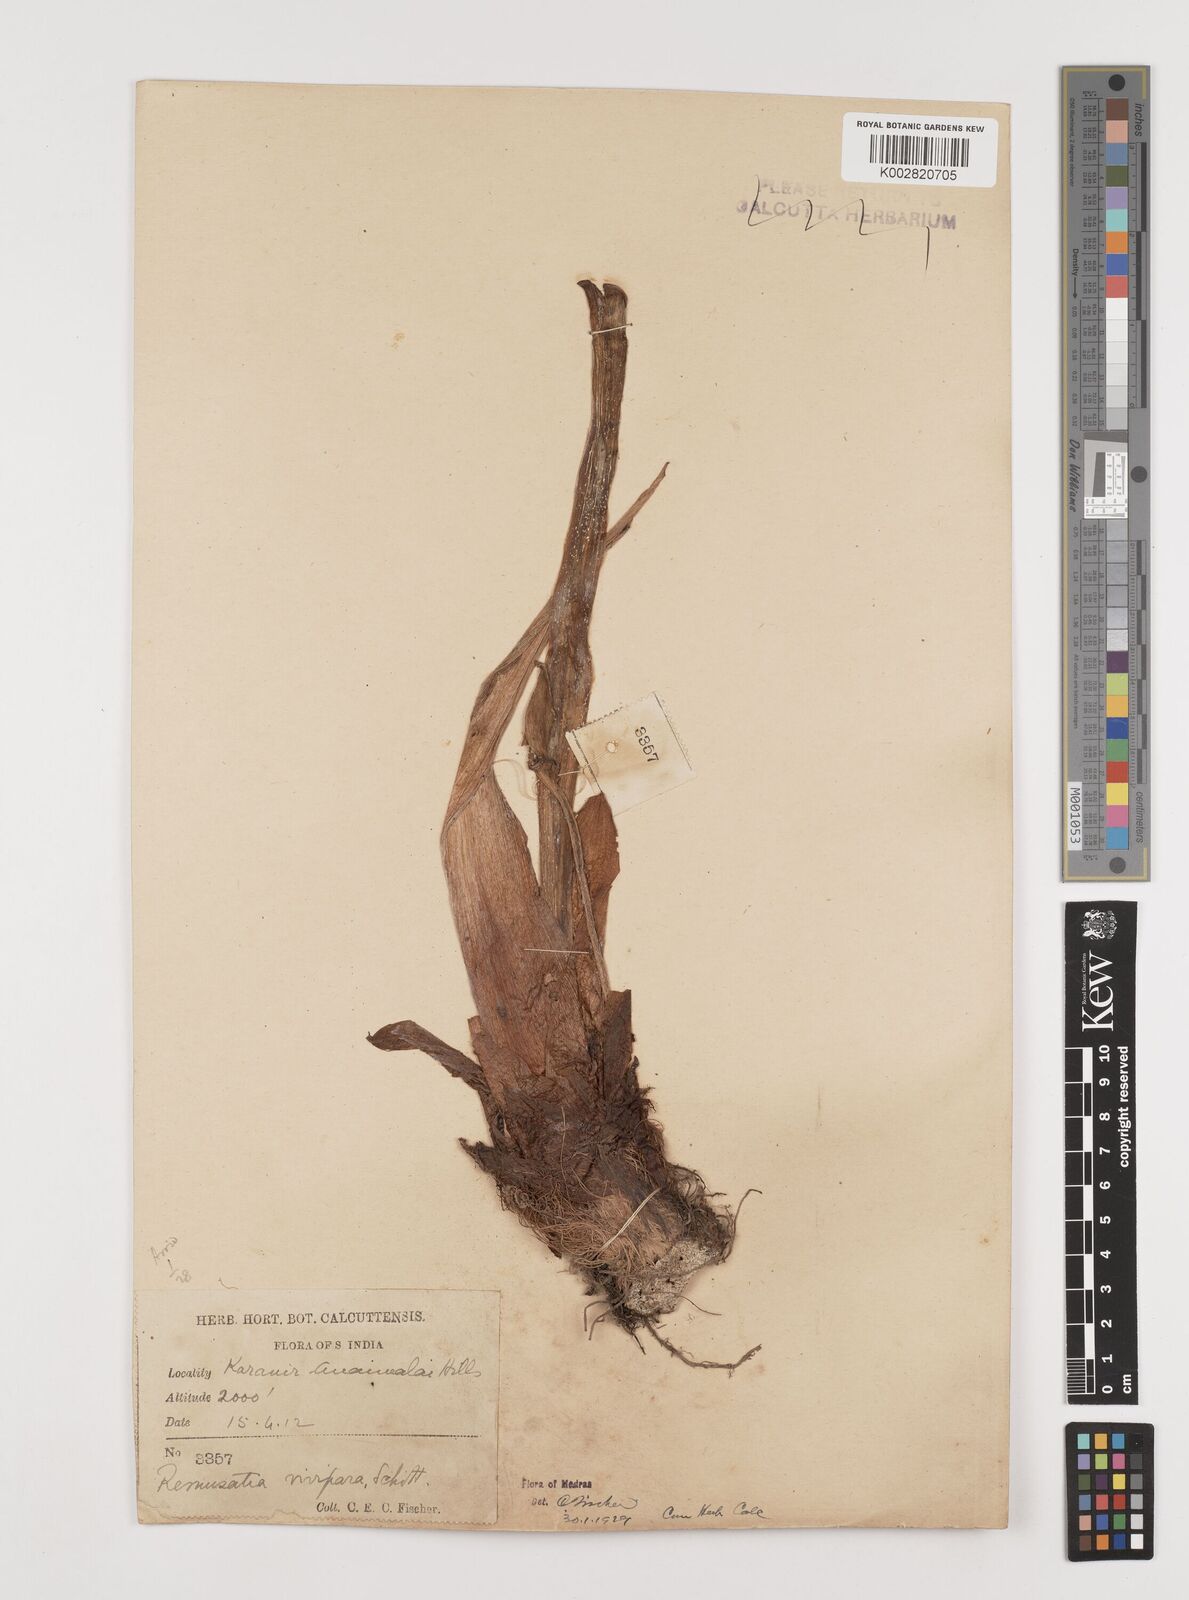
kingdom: Plantae
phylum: Tracheophyta
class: Liliopsida
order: Alismatales
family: Araceae
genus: Remusatia
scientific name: Remusatia vivipara
